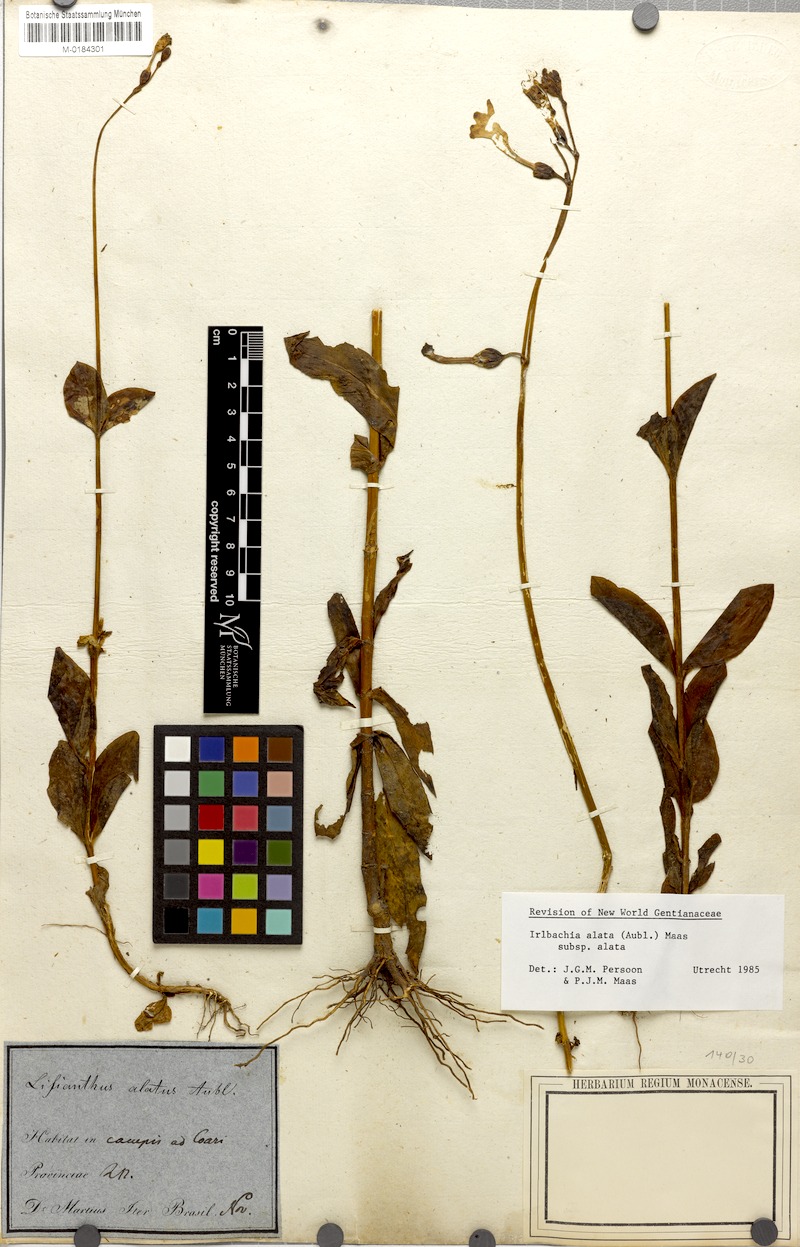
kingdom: Plantae
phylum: Tracheophyta
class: Magnoliopsida
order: Gentianales
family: Gentianaceae
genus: Chelonanthus
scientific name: Chelonanthus alatus
